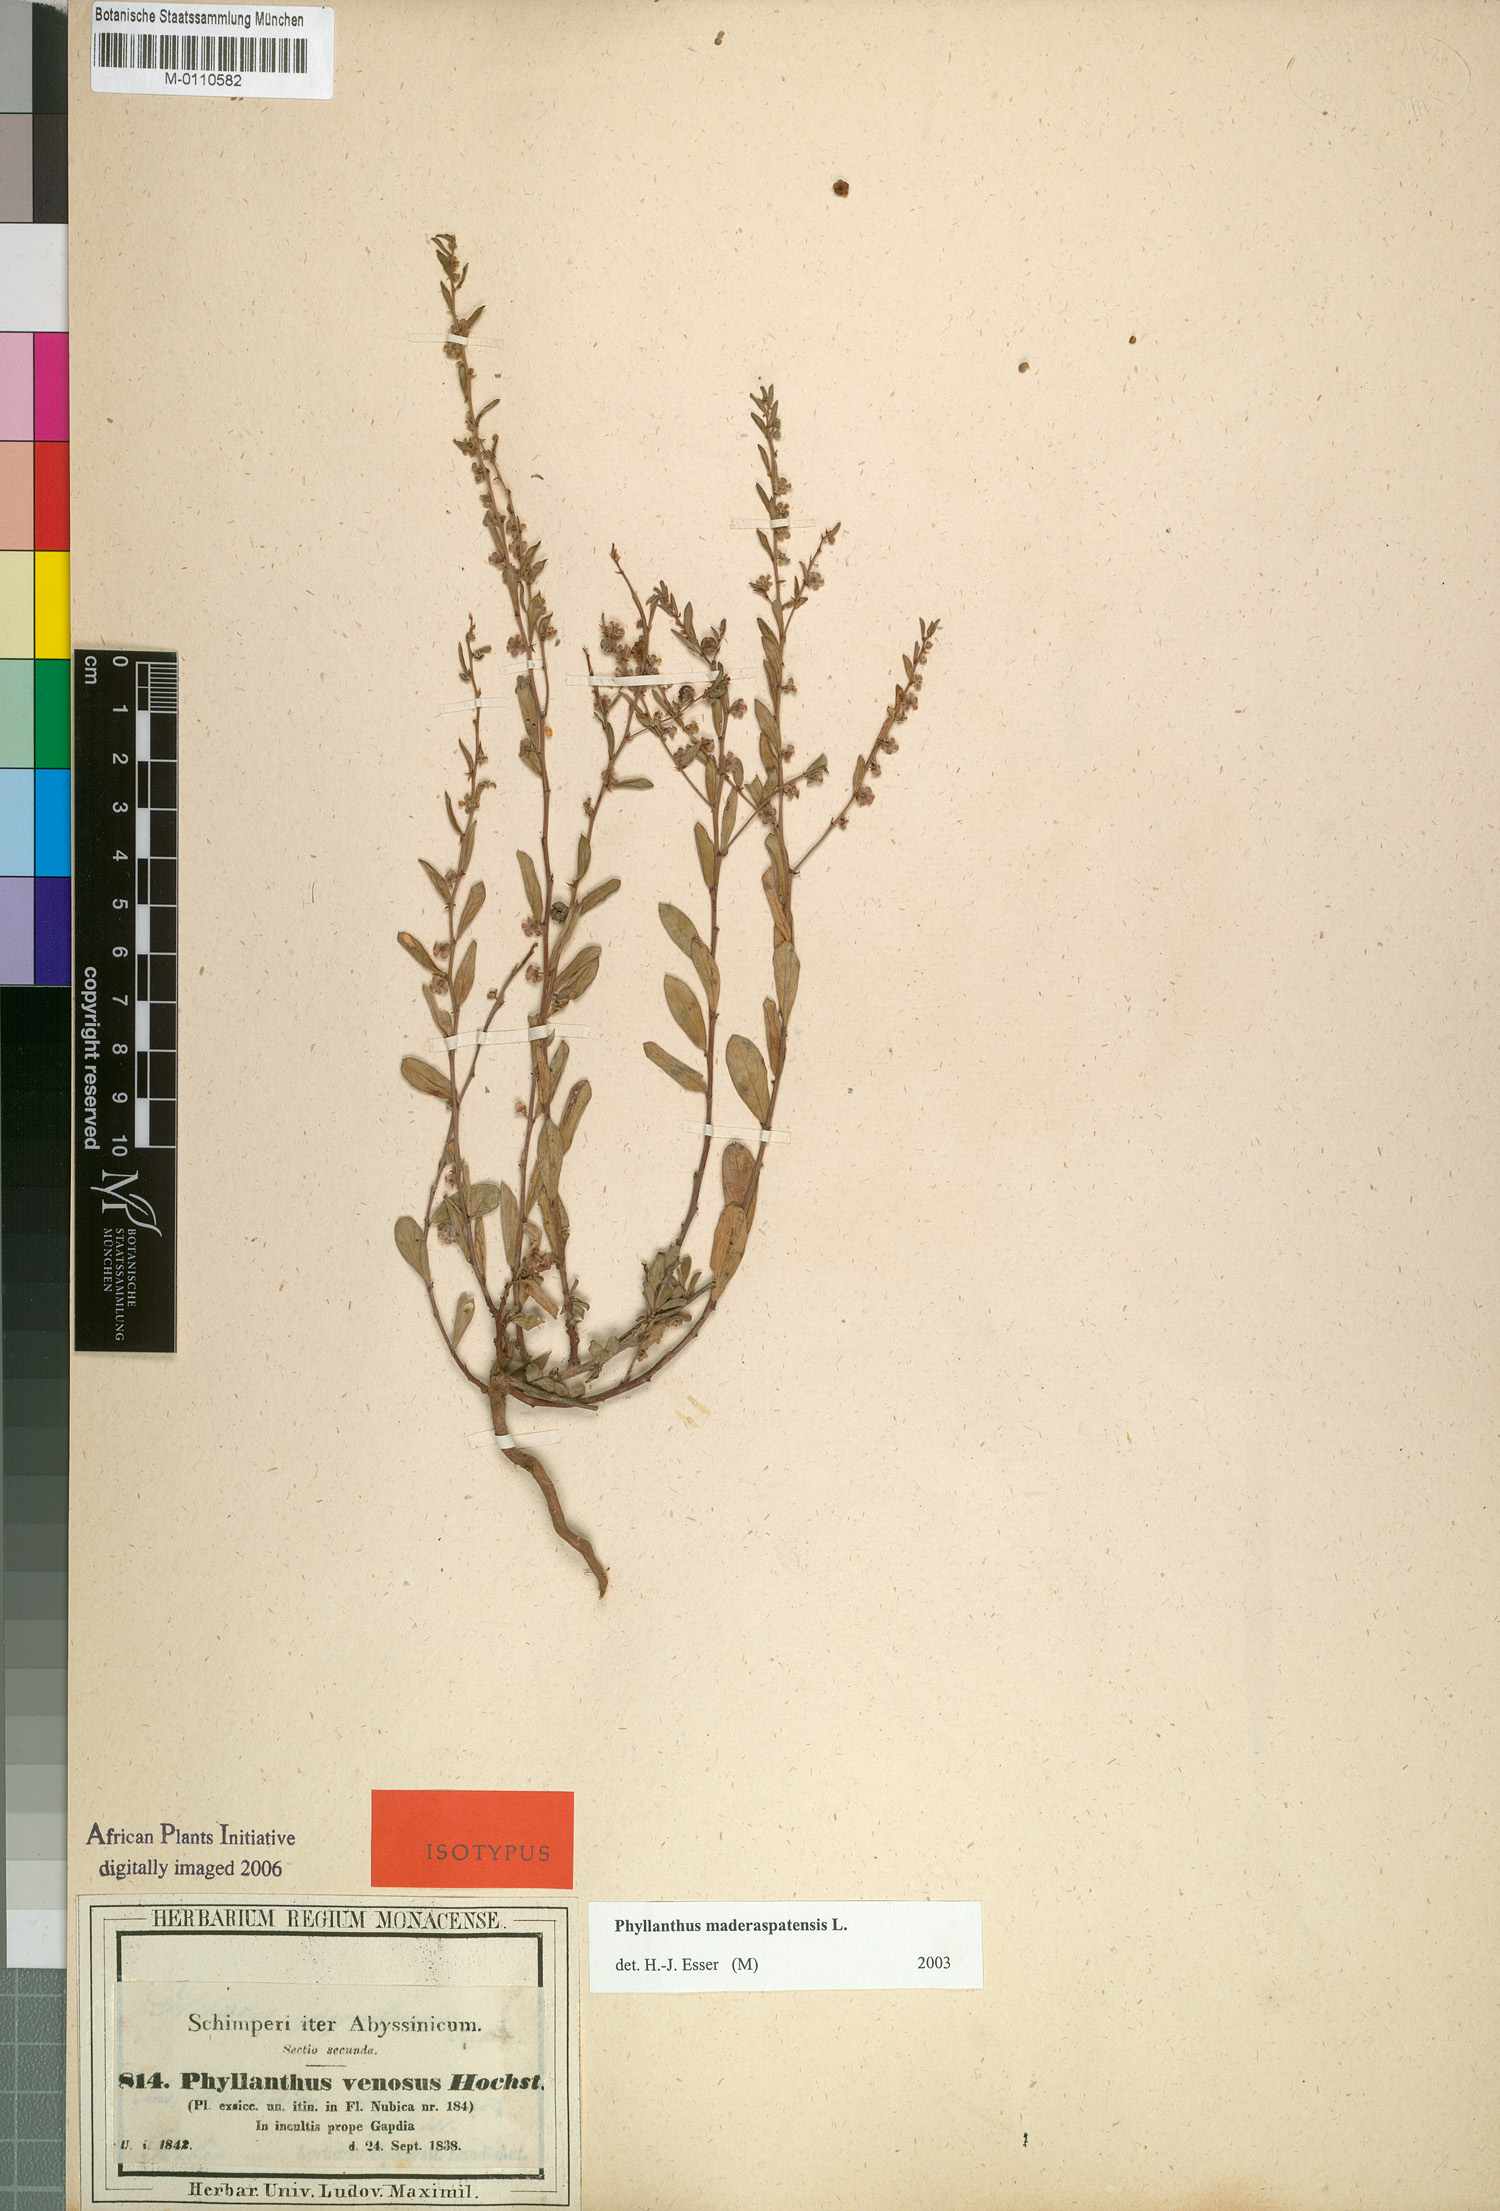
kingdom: Plantae
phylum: Tracheophyta
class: Magnoliopsida
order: Malpighiales
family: Phyllanthaceae
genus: Phyllanthus
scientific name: Phyllanthus maderaspatensis
